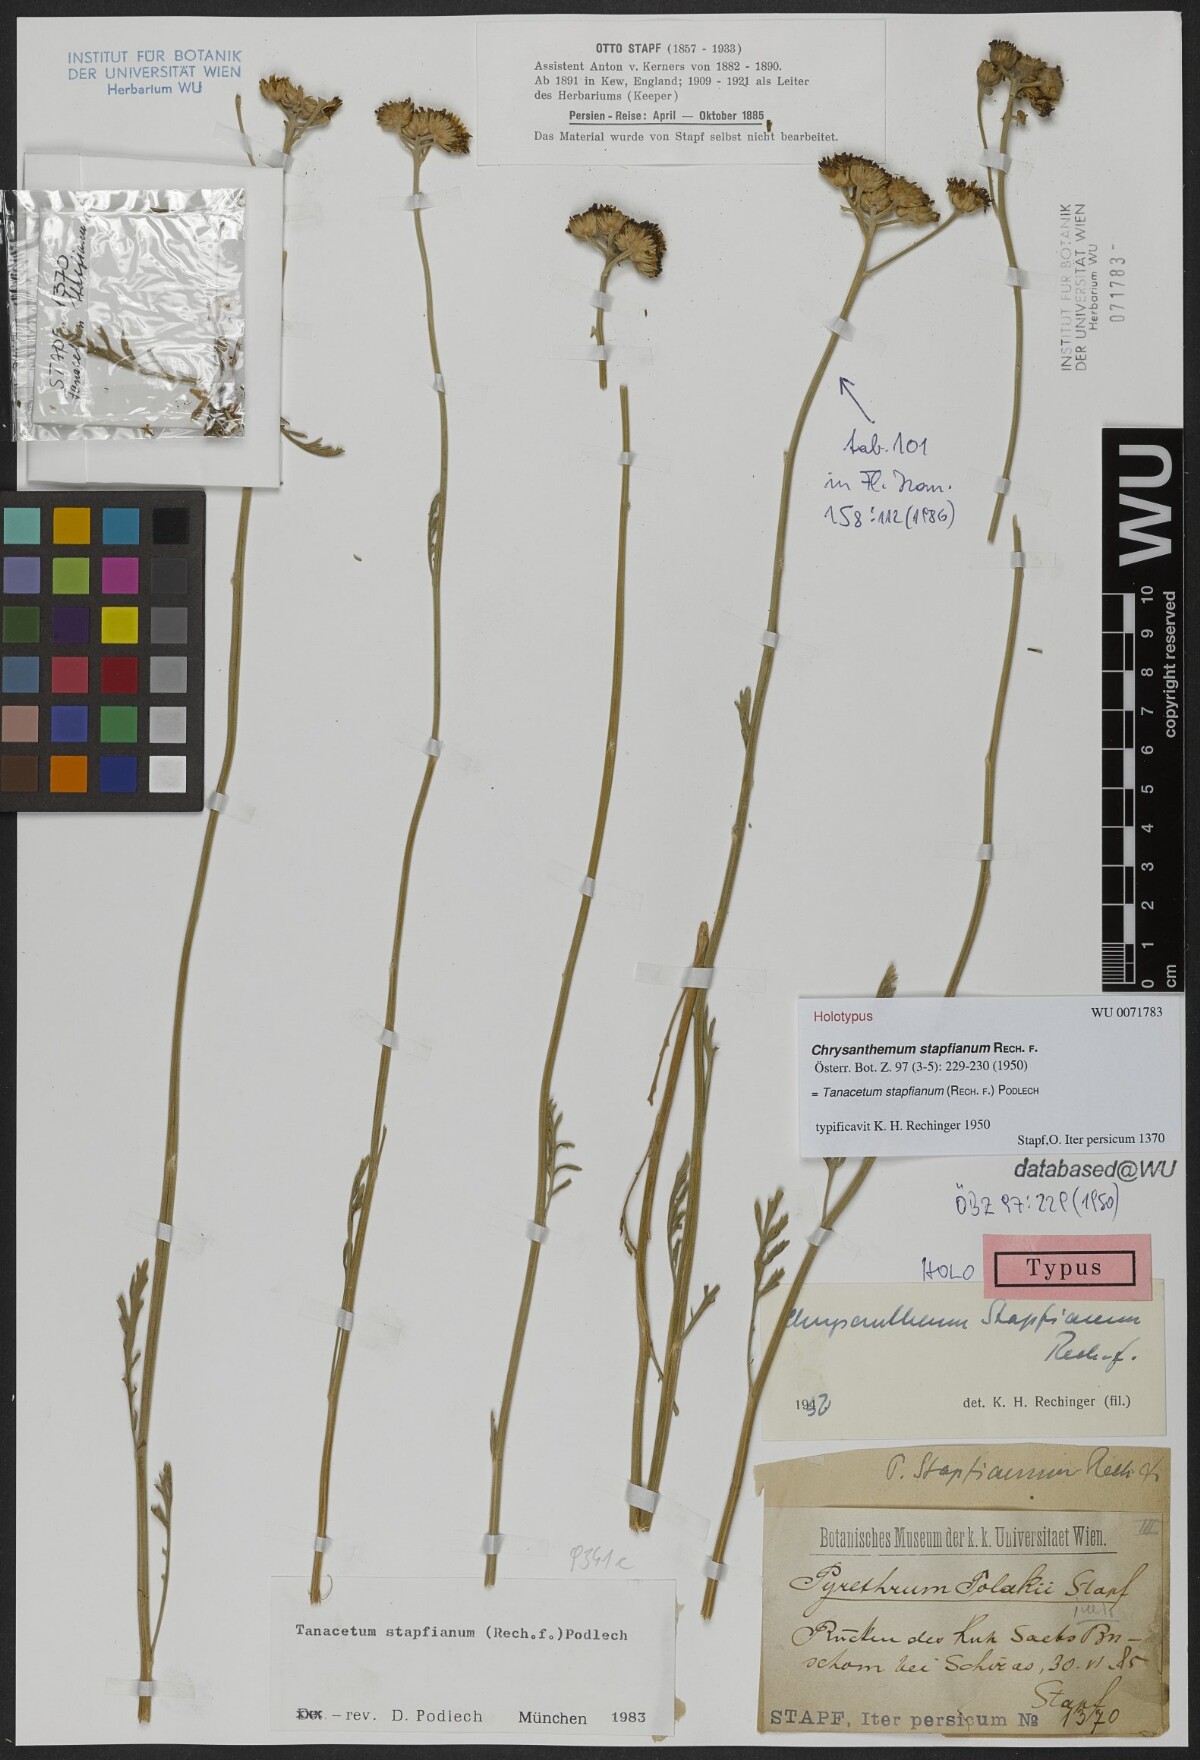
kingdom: Plantae
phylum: Tracheophyta
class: Magnoliopsida
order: Asterales
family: Asteraceae
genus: Tanacetum
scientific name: Tanacetum stapfianum
